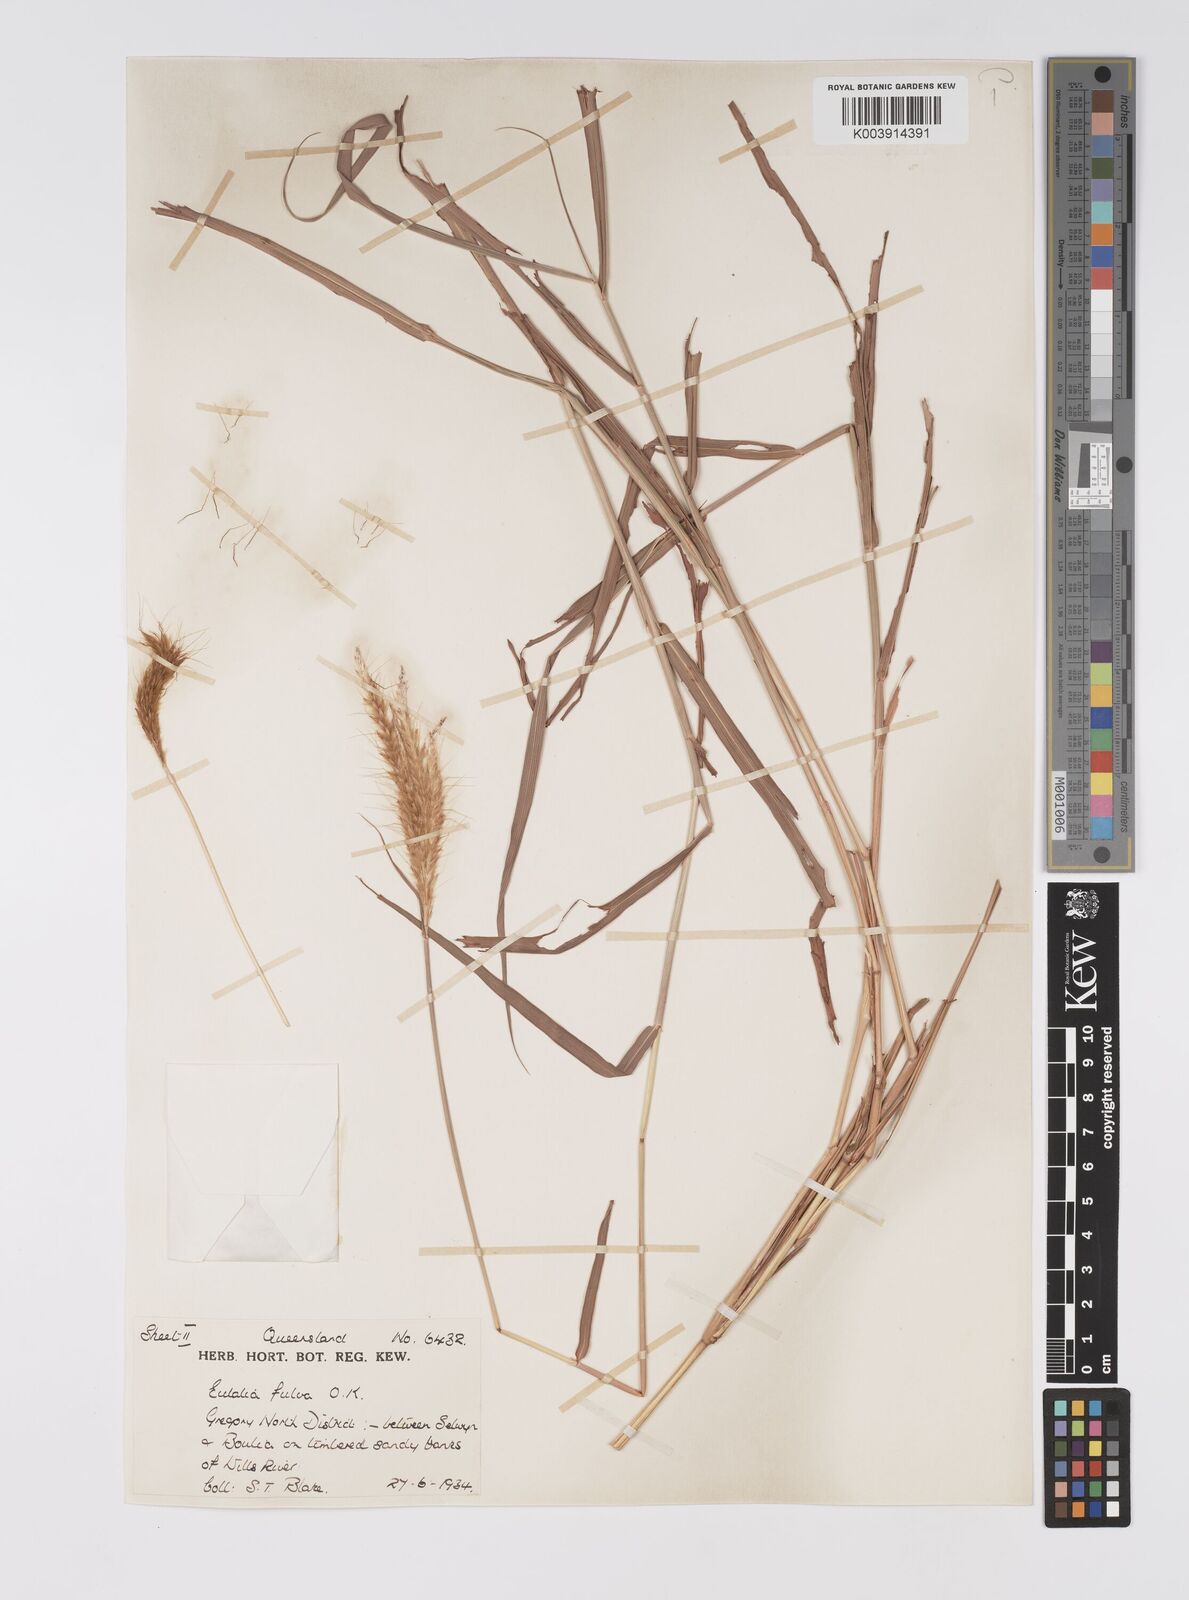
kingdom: Plantae
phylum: Tracheophyta
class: Liliopsida
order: Poales
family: Poaceae
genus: Eulalia
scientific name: Eulalia aurea
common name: Silky browntop
